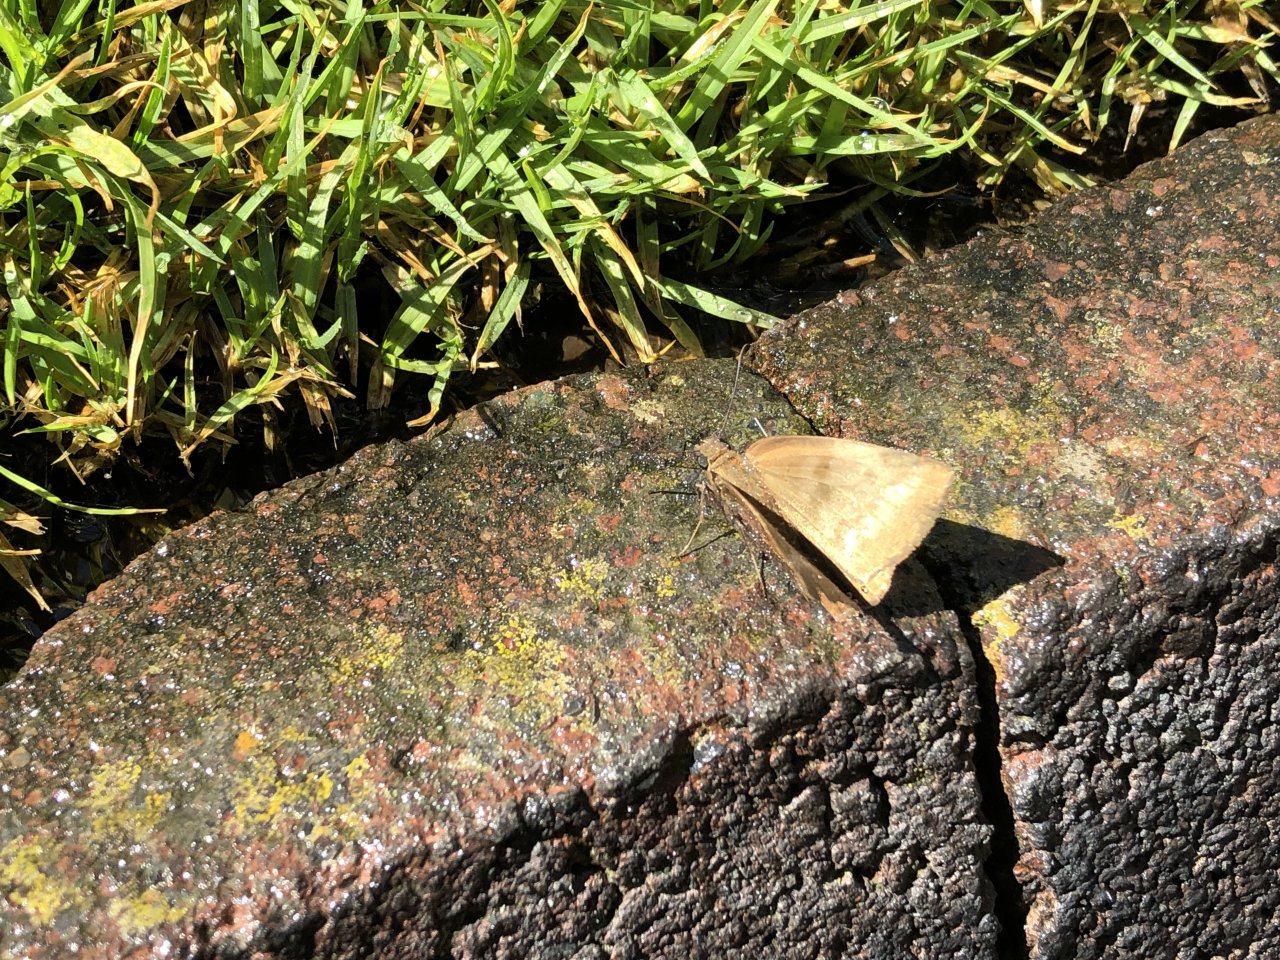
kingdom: Animalia
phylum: Arthropoda
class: Insecta
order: Lepidoptera
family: Hesperiidae
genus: Achlyodes
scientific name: Achlyodes pallida
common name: Pale Sicklewing
